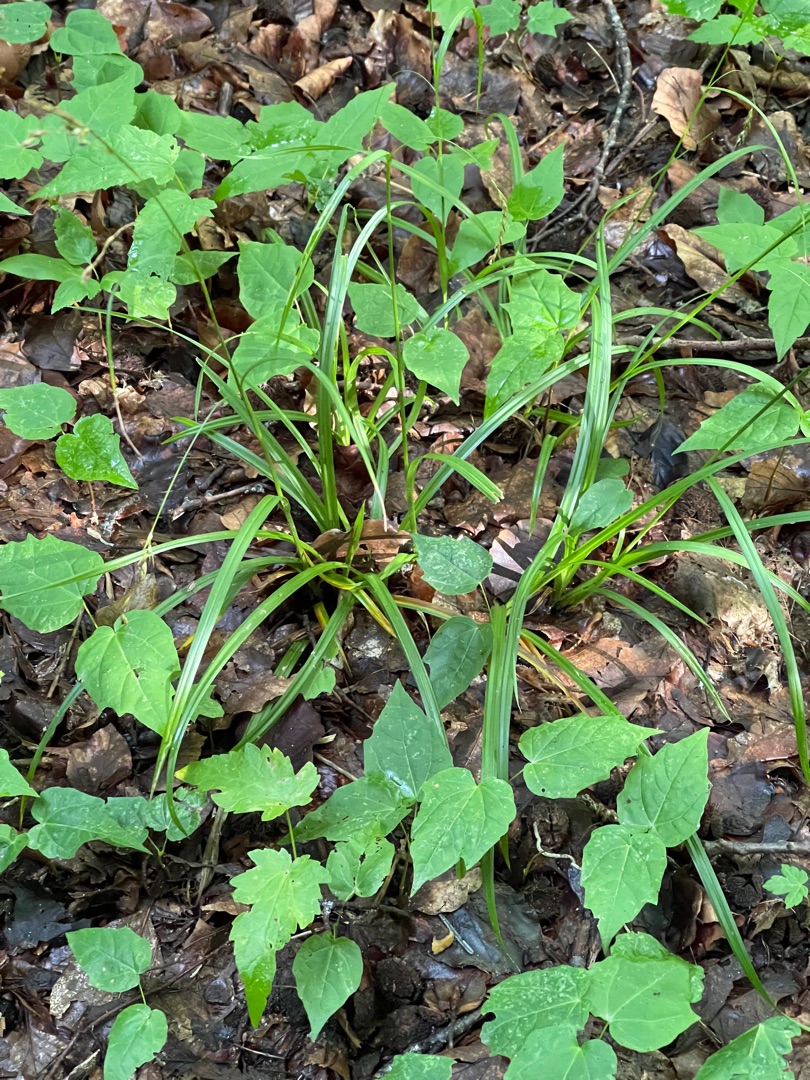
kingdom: Plantae
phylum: Tracheophyta
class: Liliopsida
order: Poales
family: Cyperaceae
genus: Carex
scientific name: Carex sylvatica
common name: Skov-star
